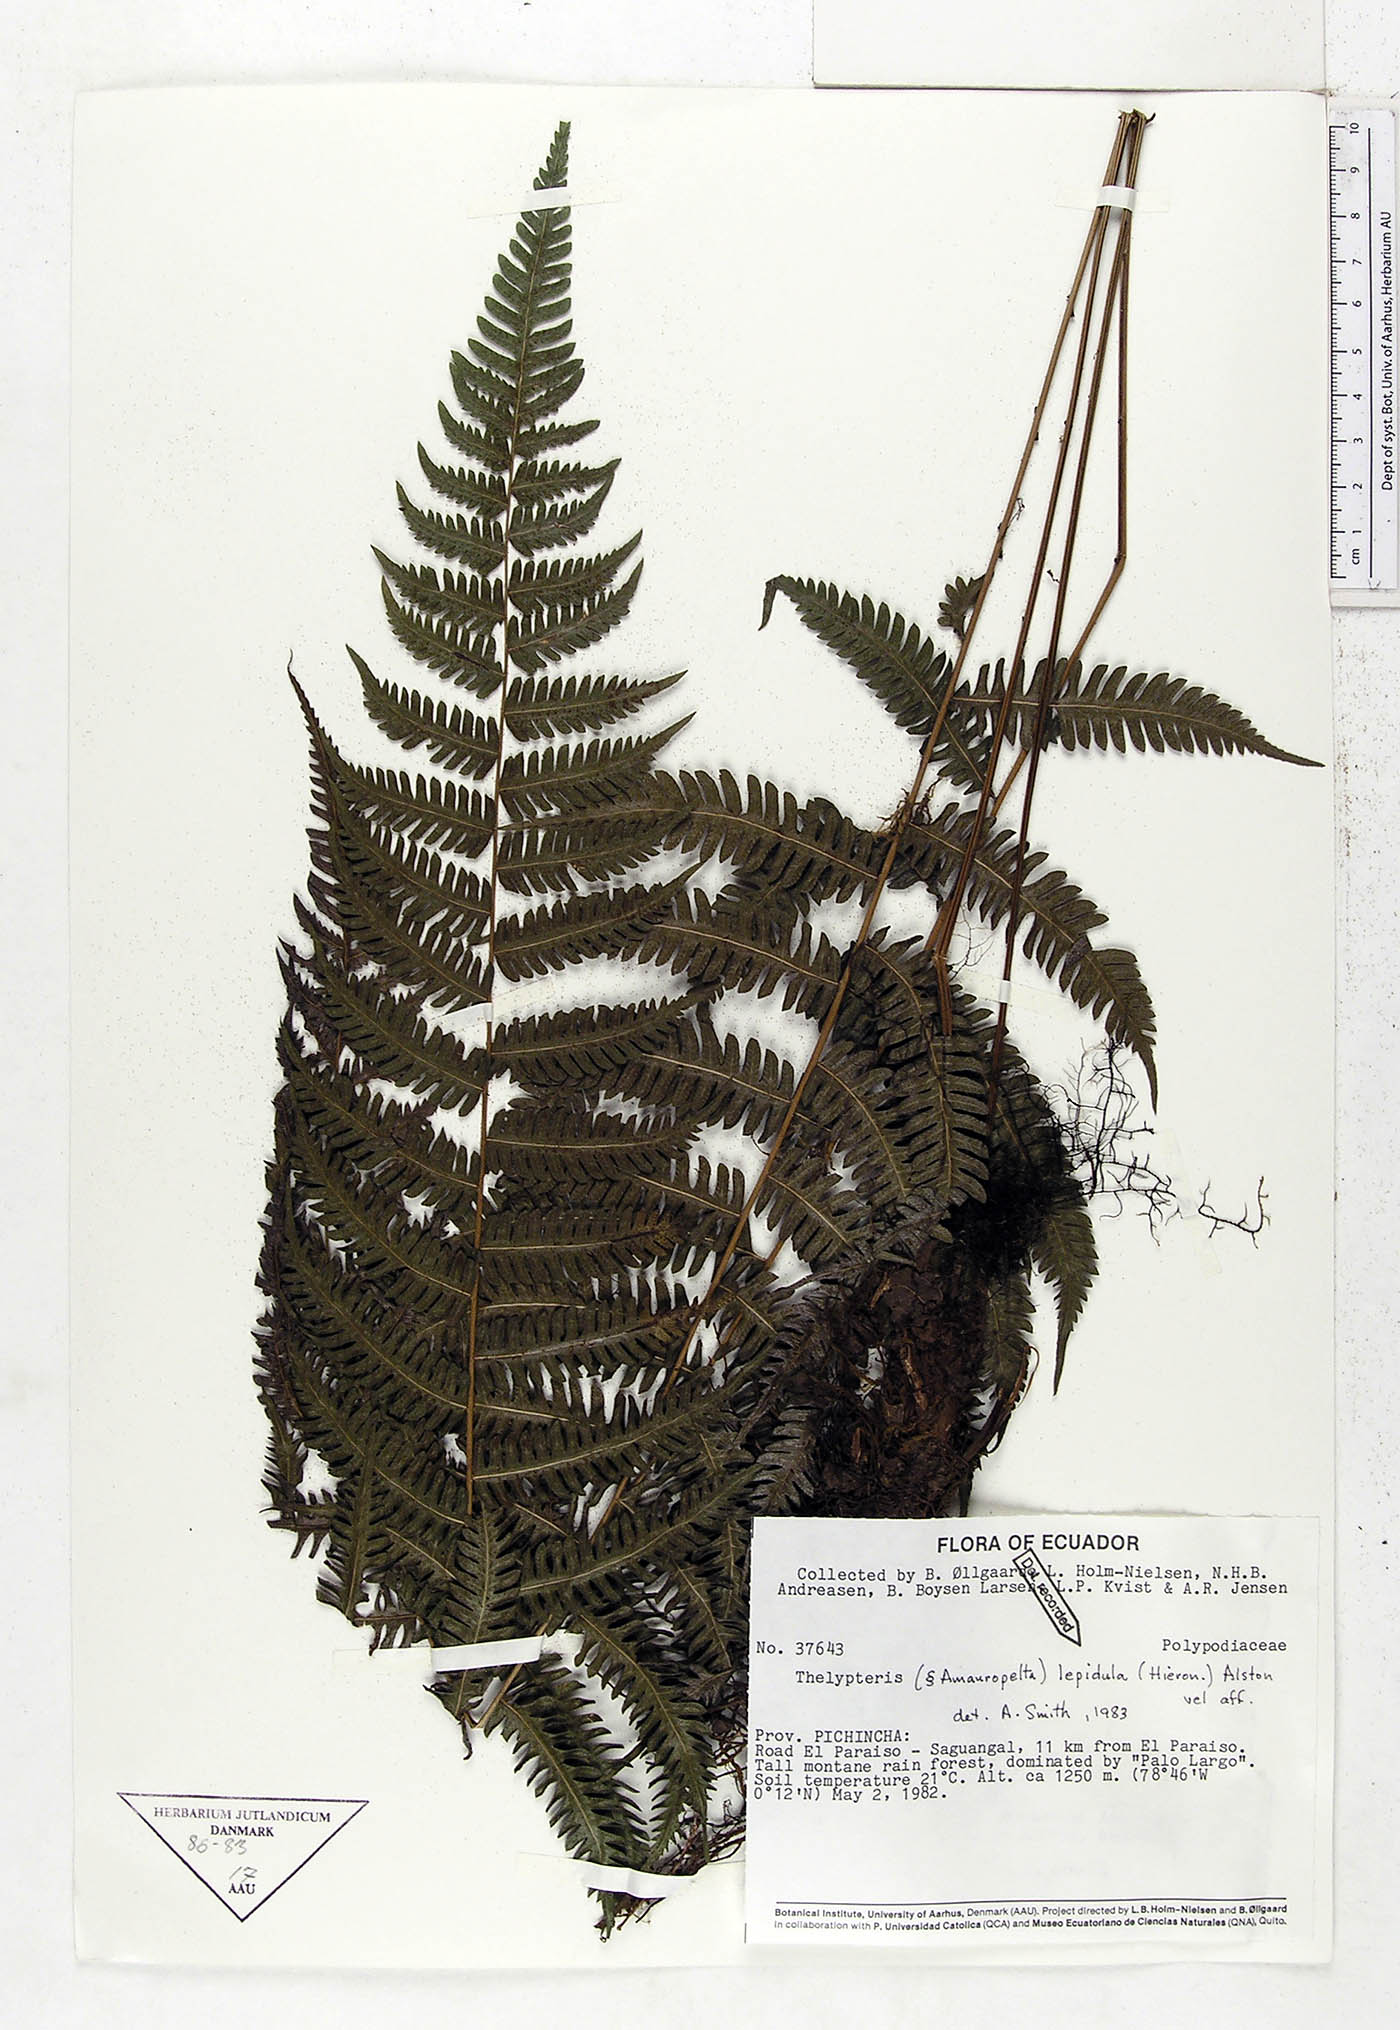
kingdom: Plantae
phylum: Tracheophyta
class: Polypodiopsida
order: Polypodiales
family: Thelypteridaceae
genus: Amauropelta
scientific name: Amauropelta lepidula
